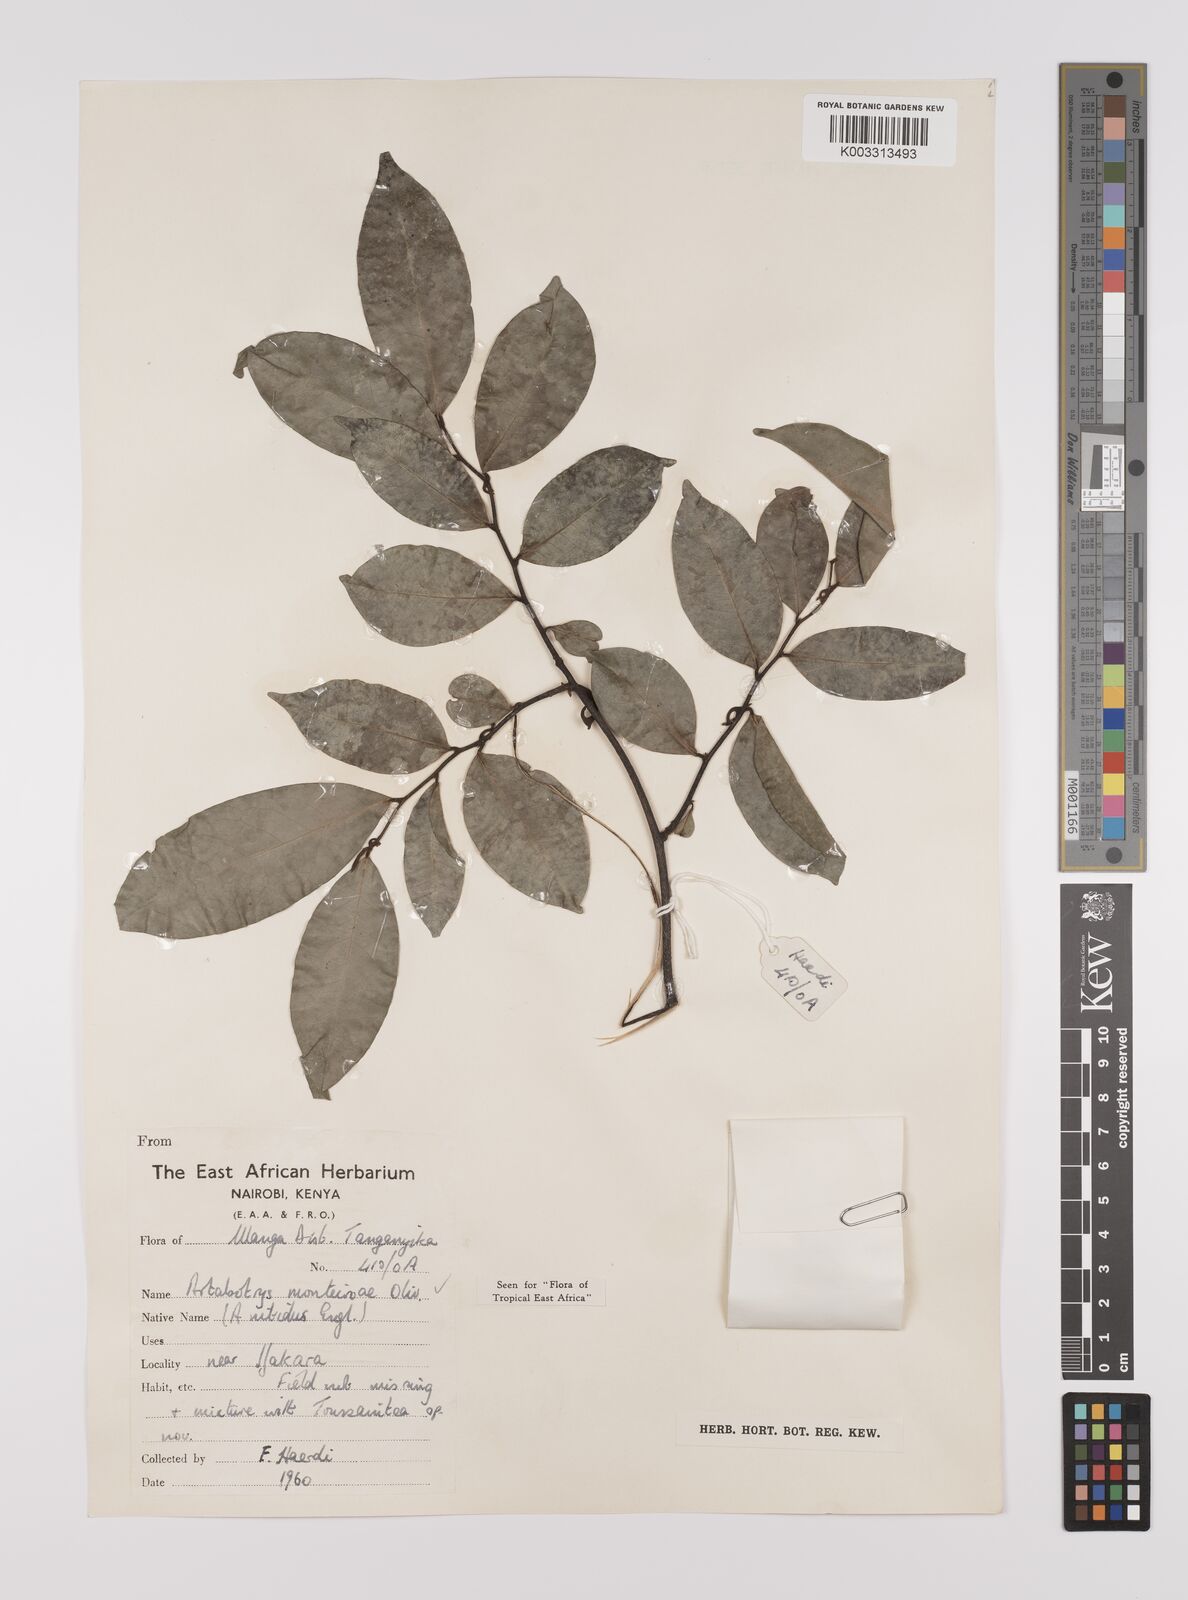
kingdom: Plantae
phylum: Tracheophyta
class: Magnoliopsida
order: Magnoliales
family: Annonaceae
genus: Artabotrys
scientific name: Artabotrys monteiroae
